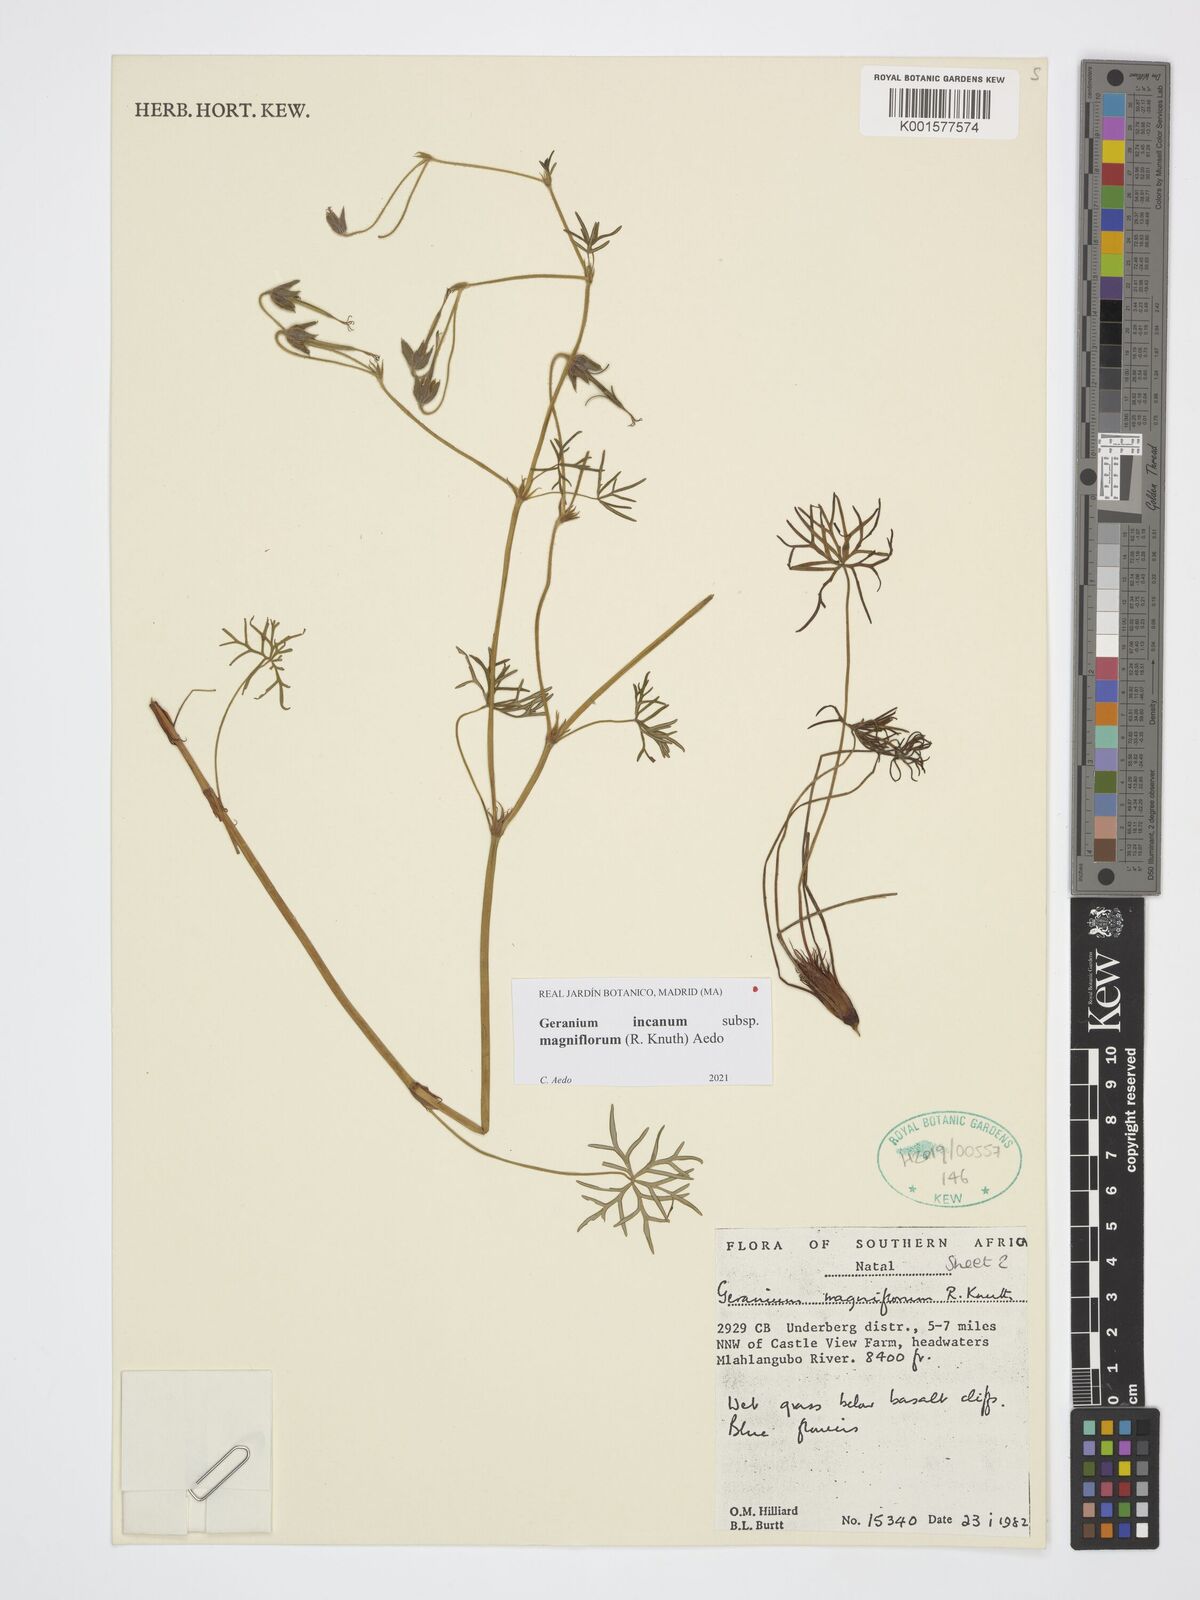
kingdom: Plantae
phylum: Tracheophyta
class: Magnoliopsida
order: Geraniales
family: Geraniaceae
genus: Geranium
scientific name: Geranium incanum
